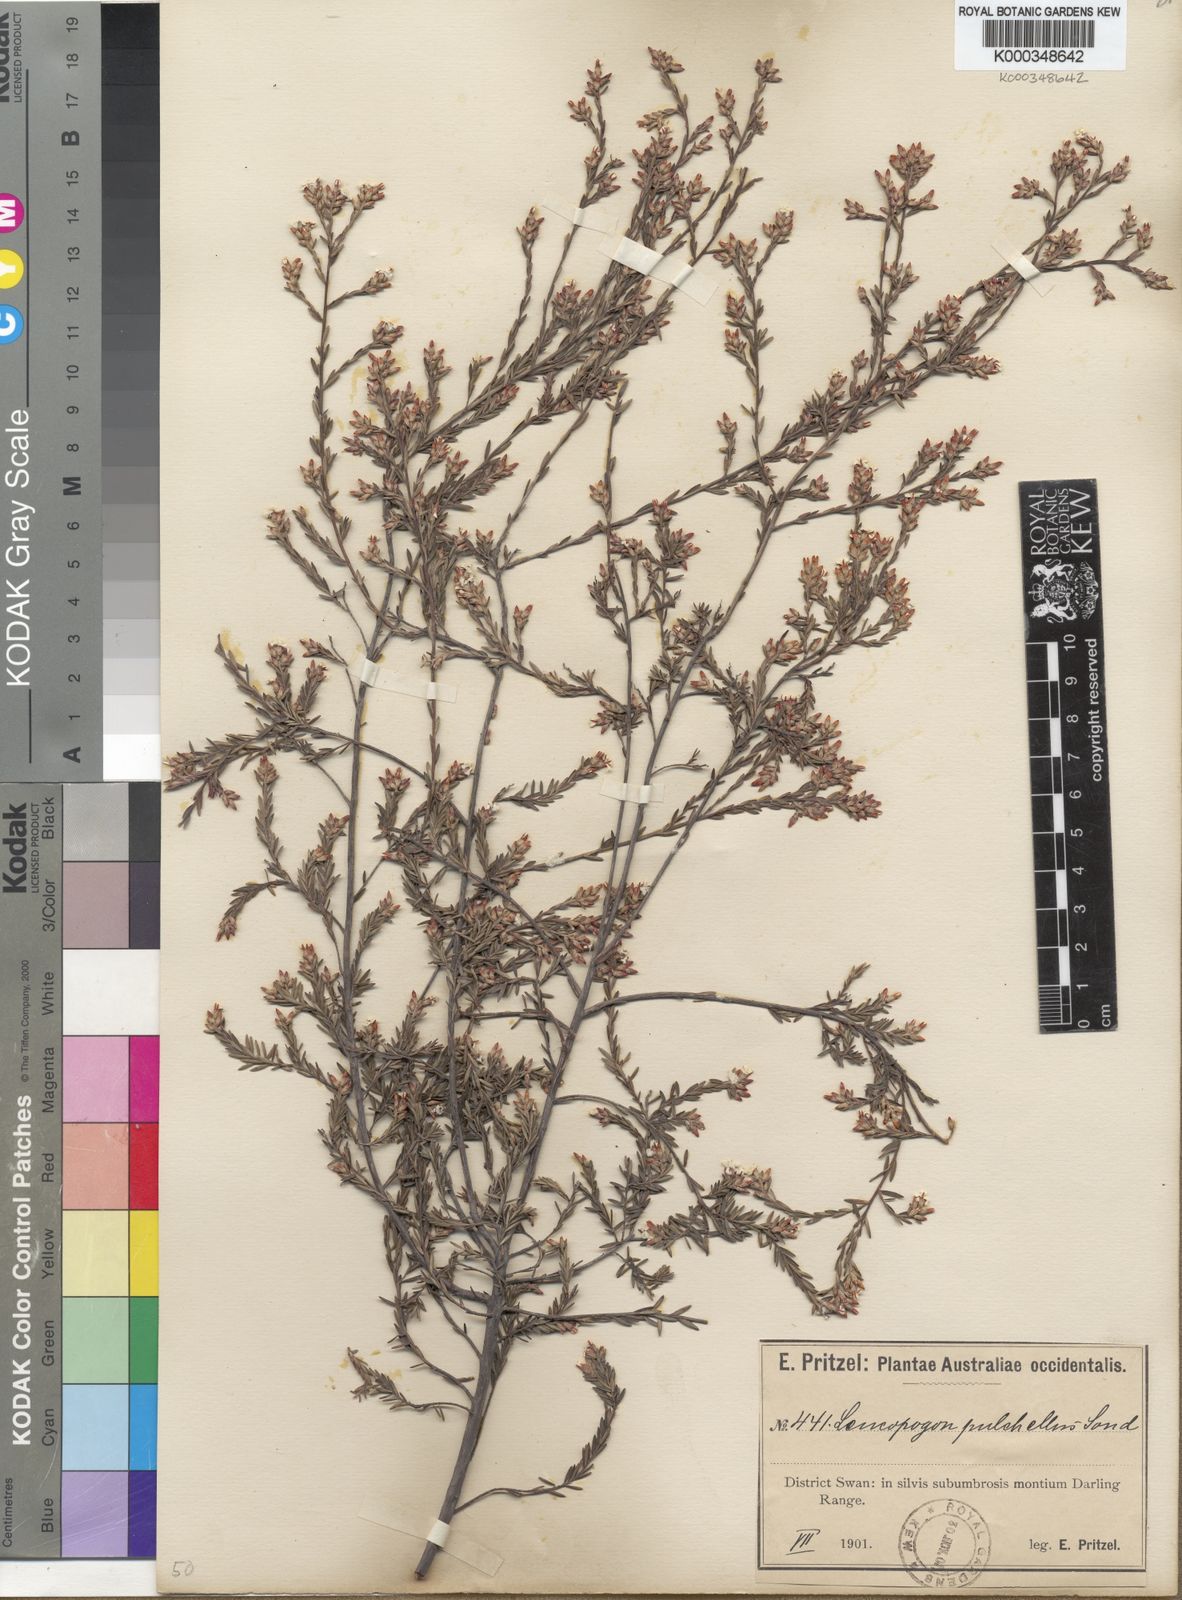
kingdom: Plantae
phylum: Tracheophyta
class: Magnoliopsida
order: Ericales
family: Ericaceae
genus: Leucopogon
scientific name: Leucopogon pulchellus
